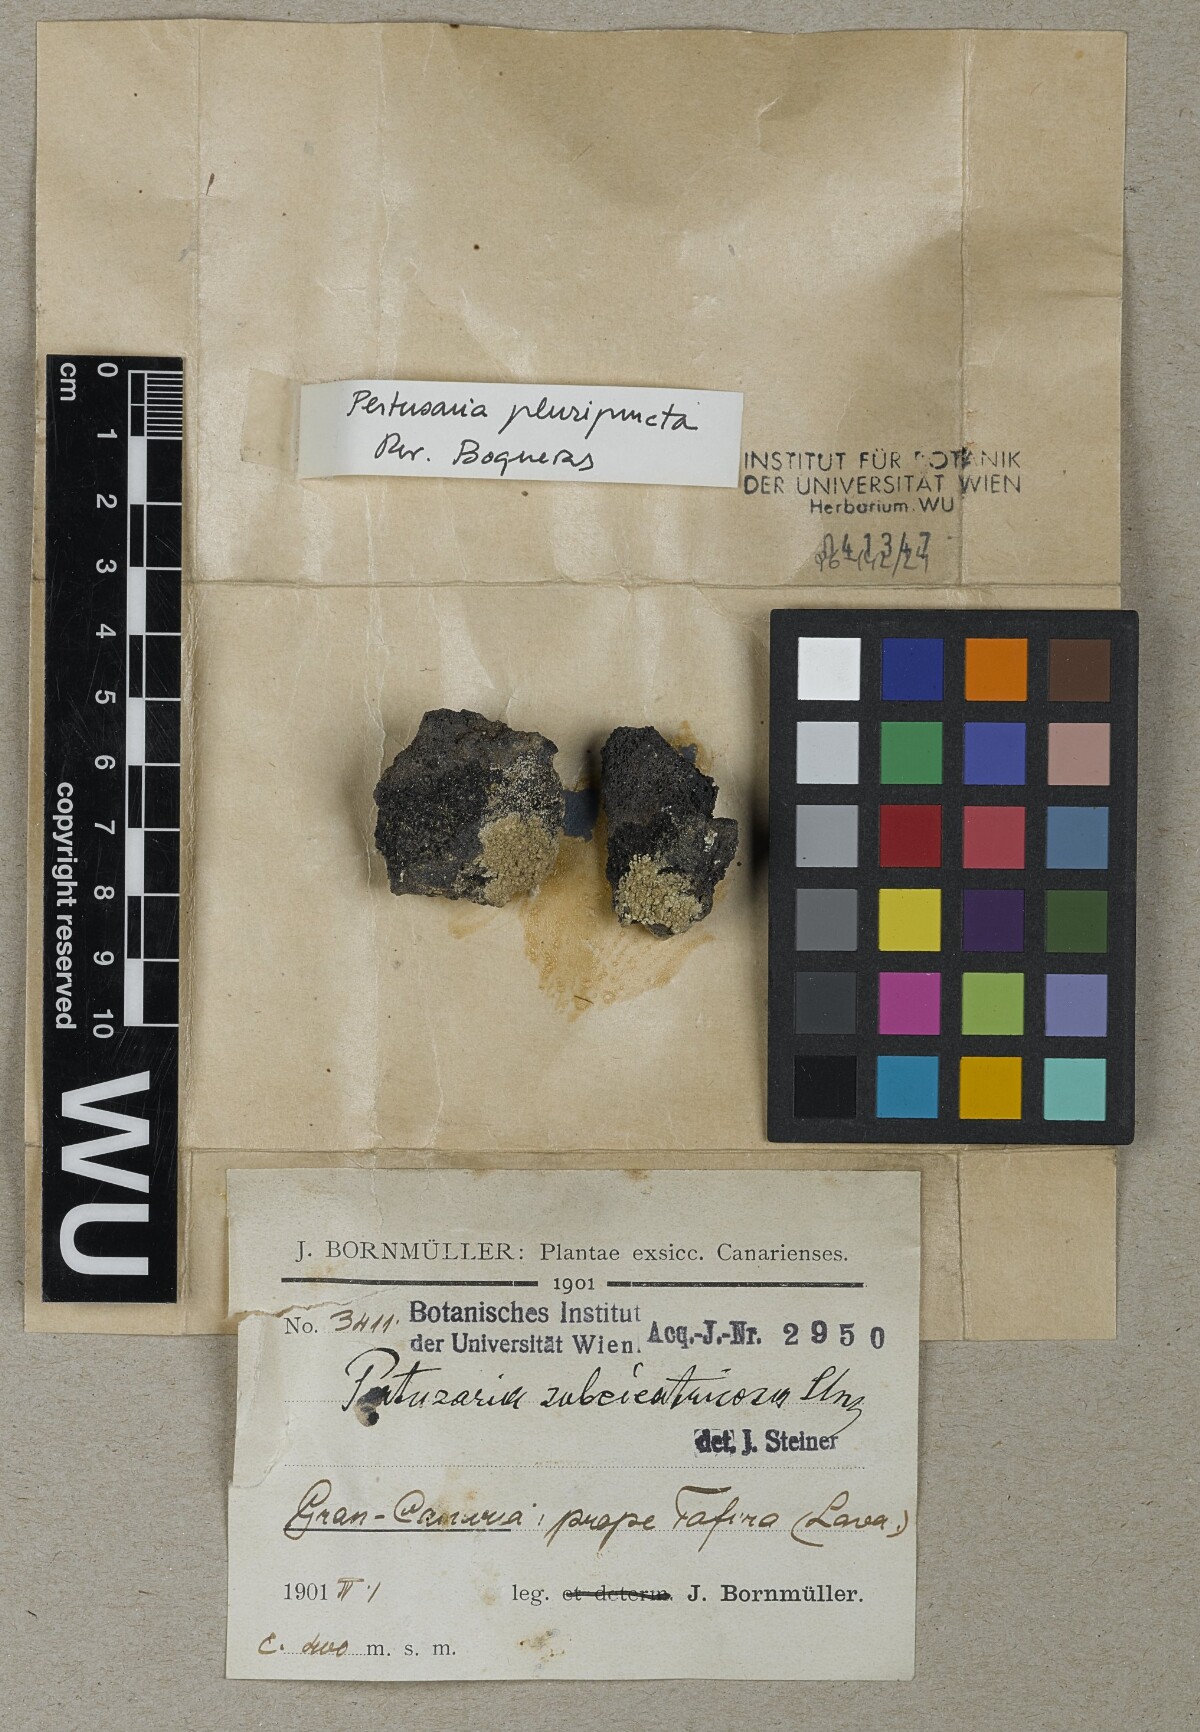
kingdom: Fungi
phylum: Ascomycota
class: Lecanoromycetes
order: Pertusariales
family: Pertusariaceae
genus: Pertusaria
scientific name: Pertusaria
